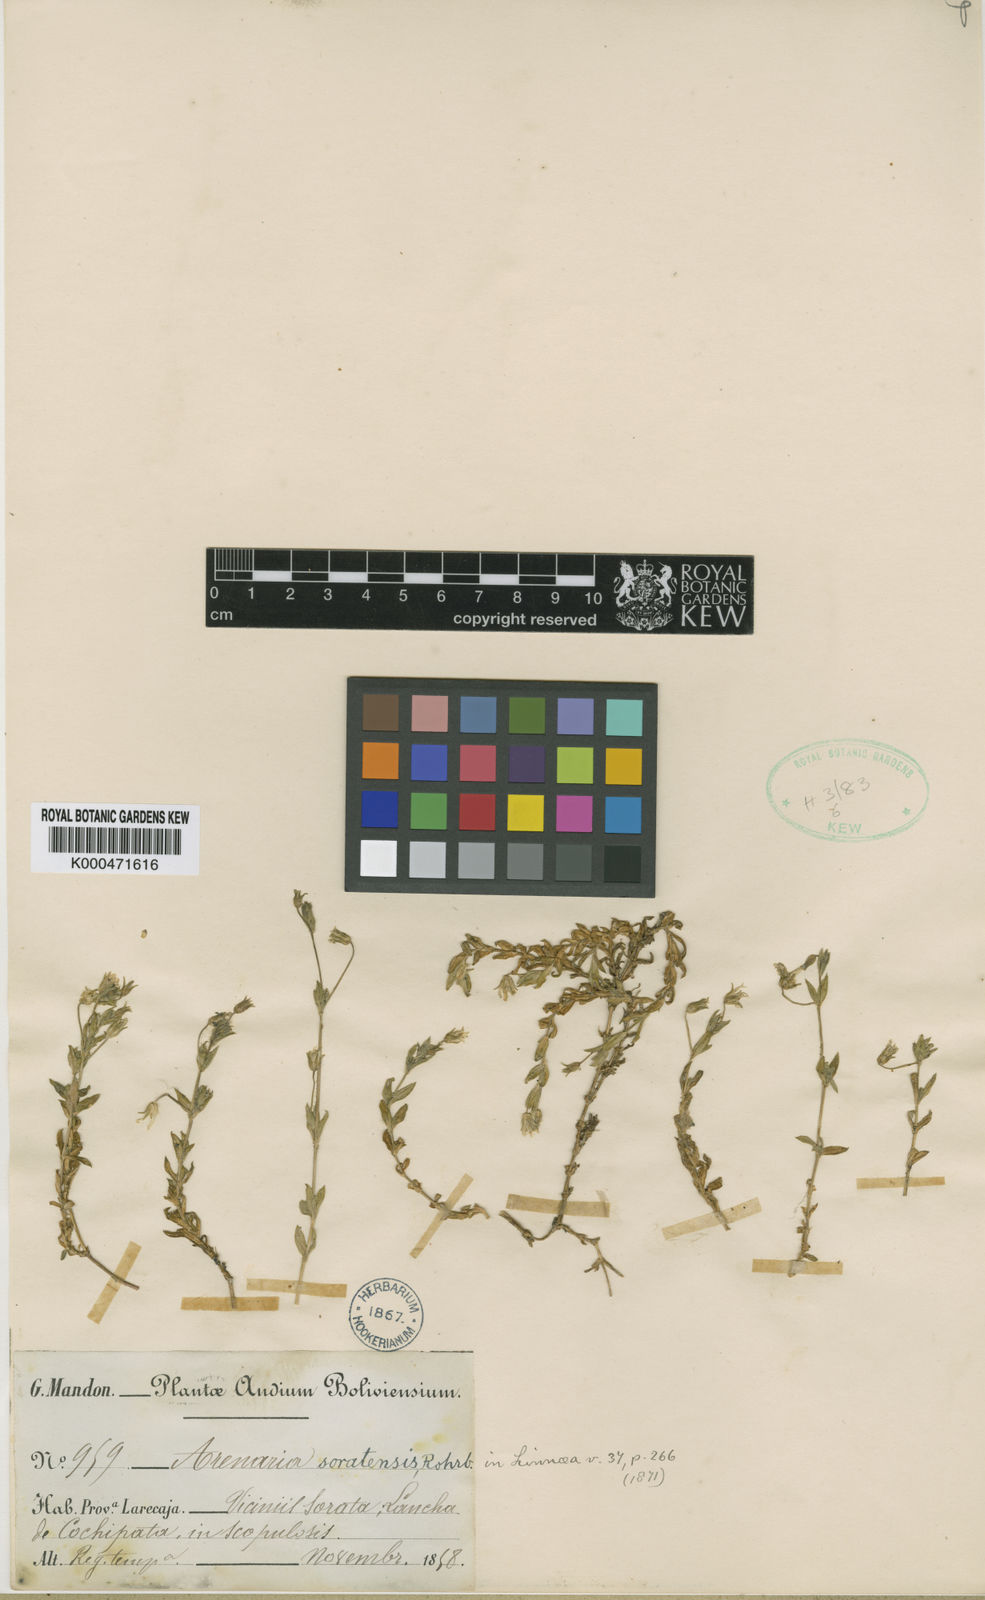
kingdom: Plantae
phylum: Tracheophyta
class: Magnoliopsida
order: Caryophyllales
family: Caryophyllaceae
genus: Arenaria
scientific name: Arenaria soratensis
